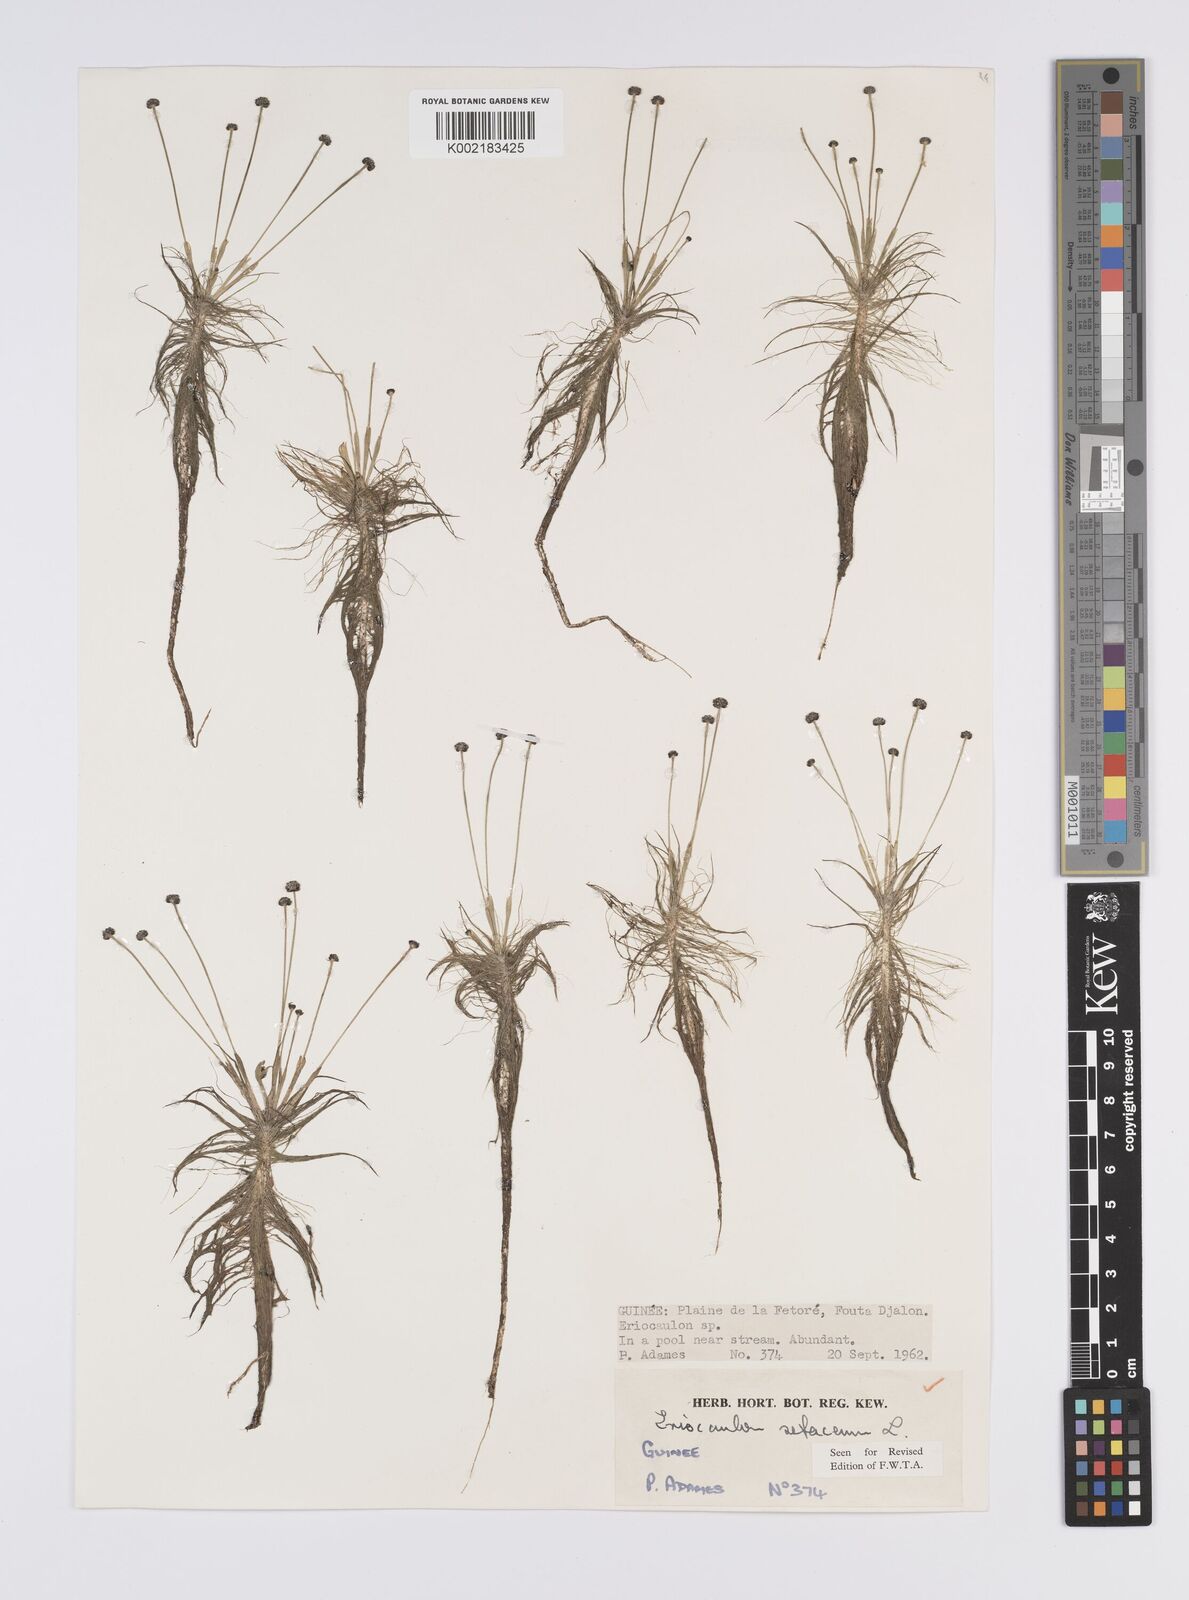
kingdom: Plantae
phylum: Tracheophyta
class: Liliopsida
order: Poales
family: Eriocaulaceae
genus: Eriocaulon
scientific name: Eriocaulon setaceum
